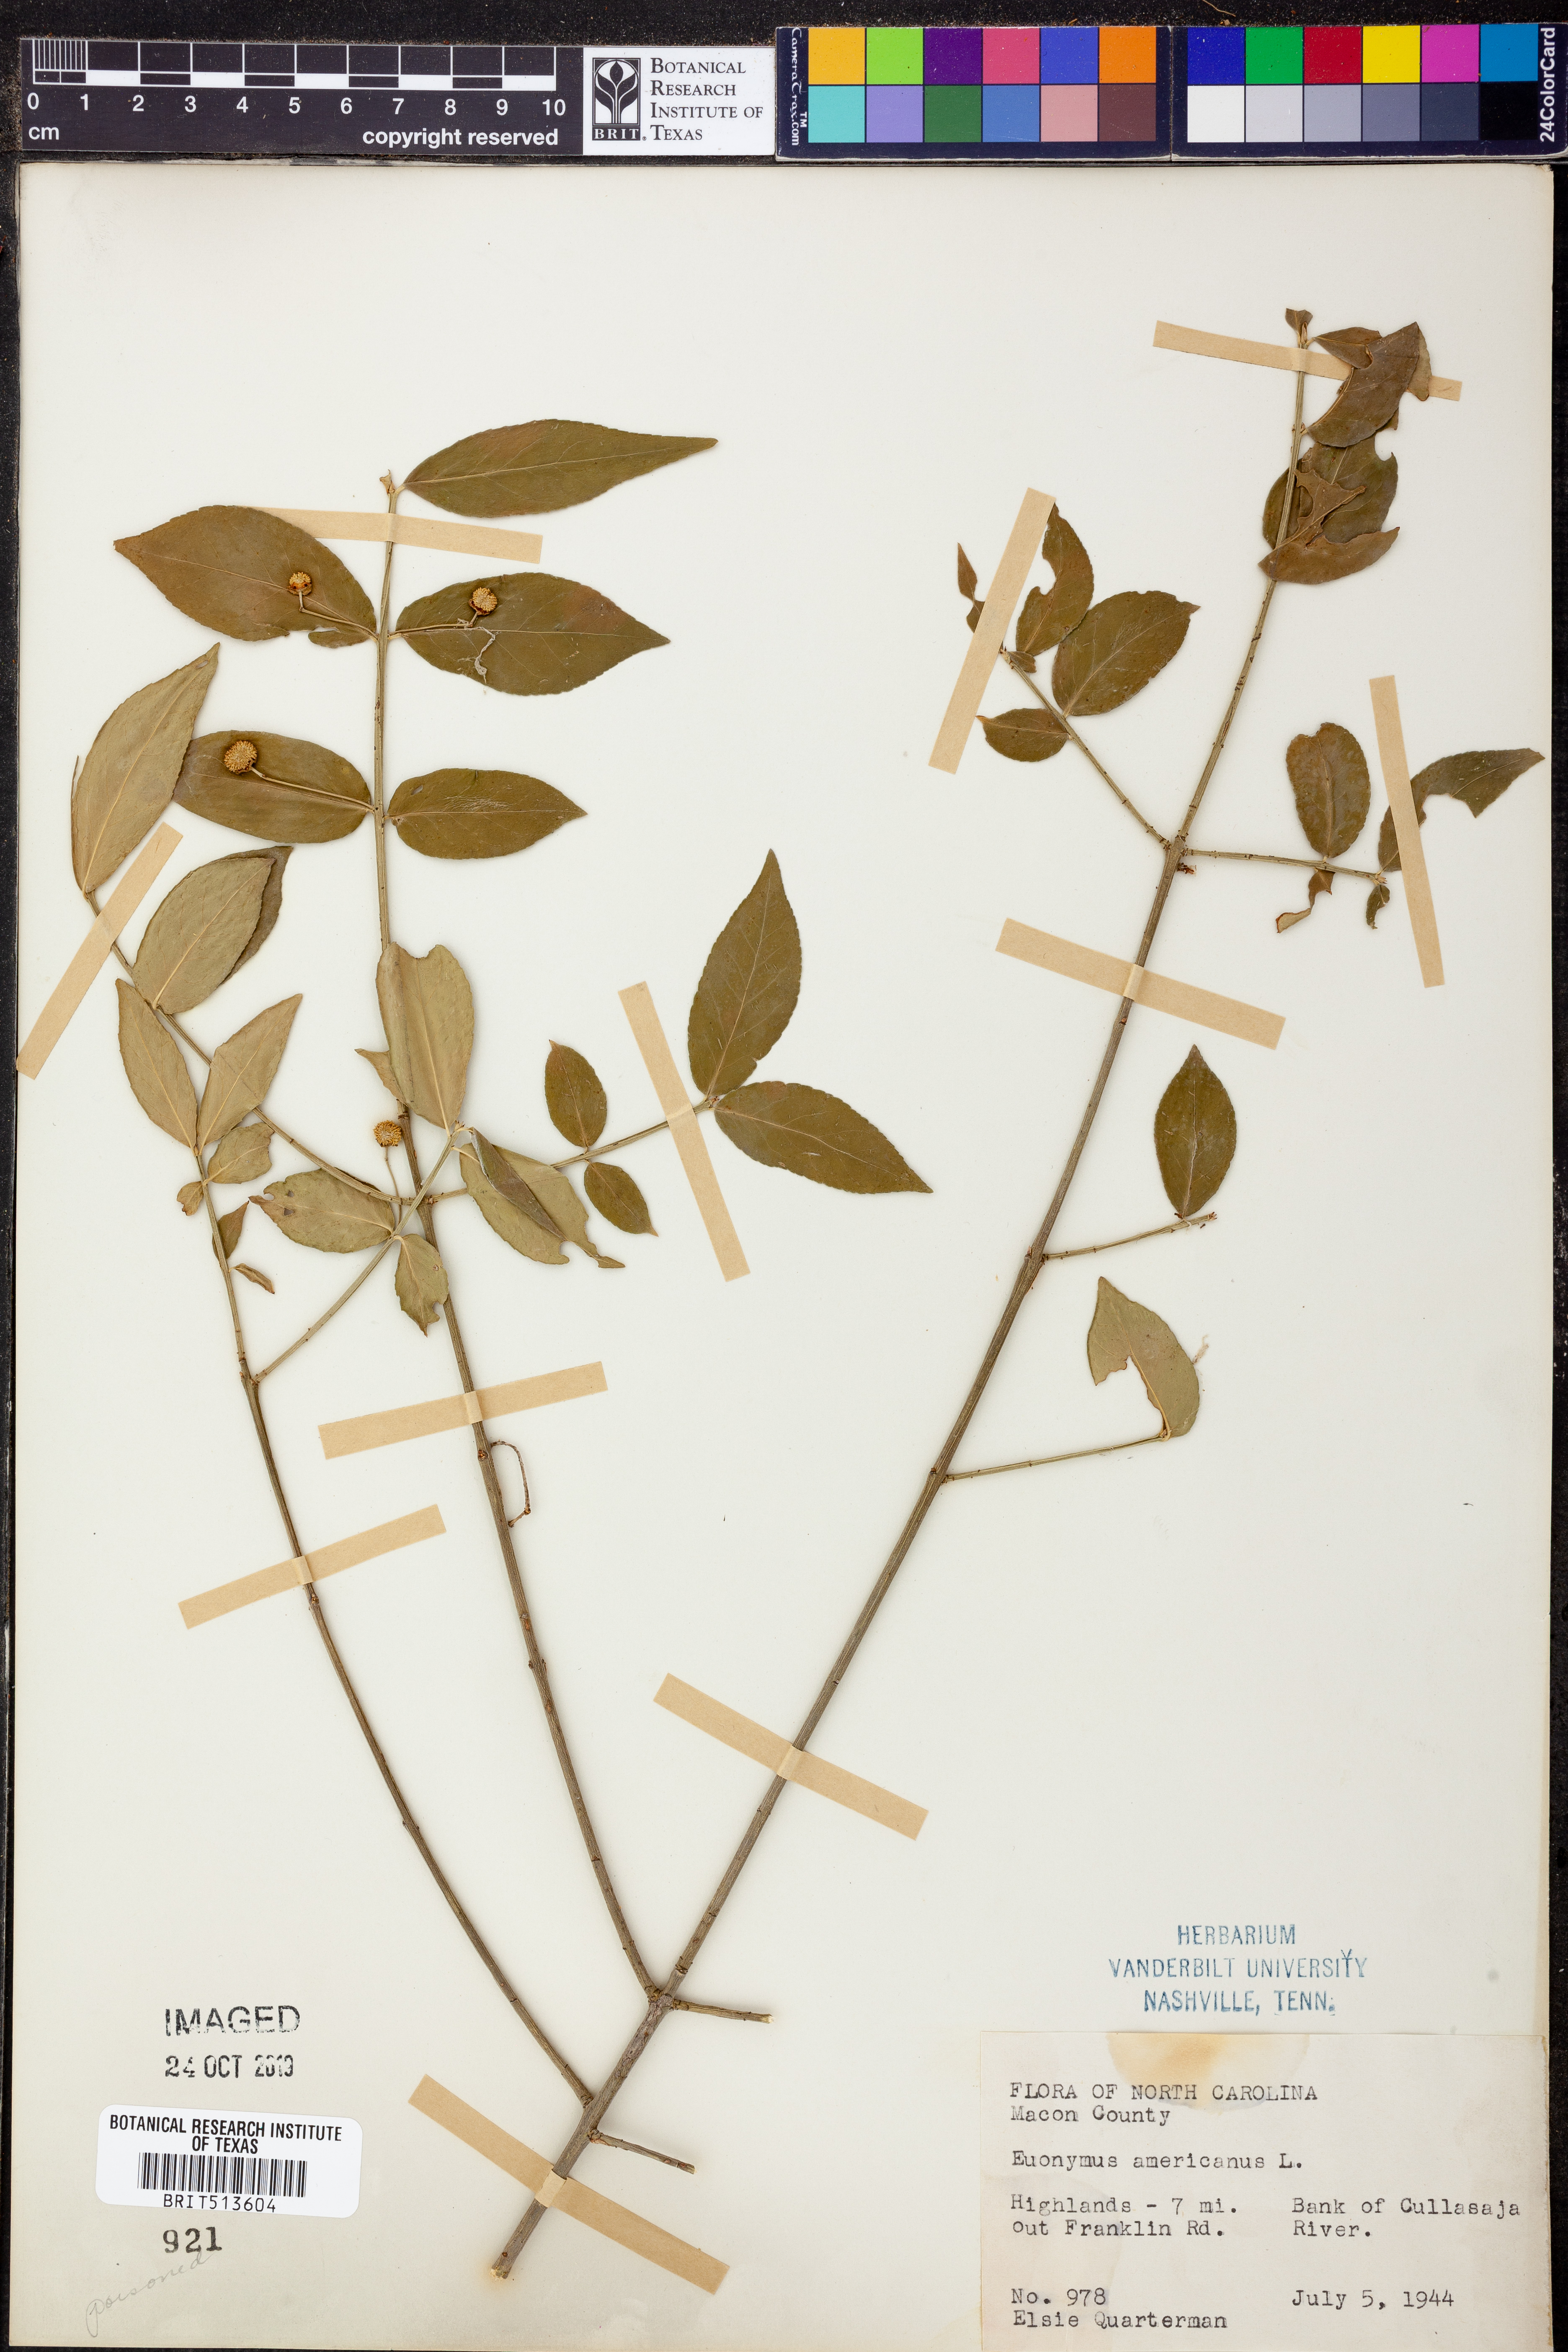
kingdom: Plantae
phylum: Tracheophyta
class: Magnoliopsida
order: Celastrales
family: Celastraceae
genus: Euonymus
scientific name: Euonymus americanus
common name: Bursting-heart
